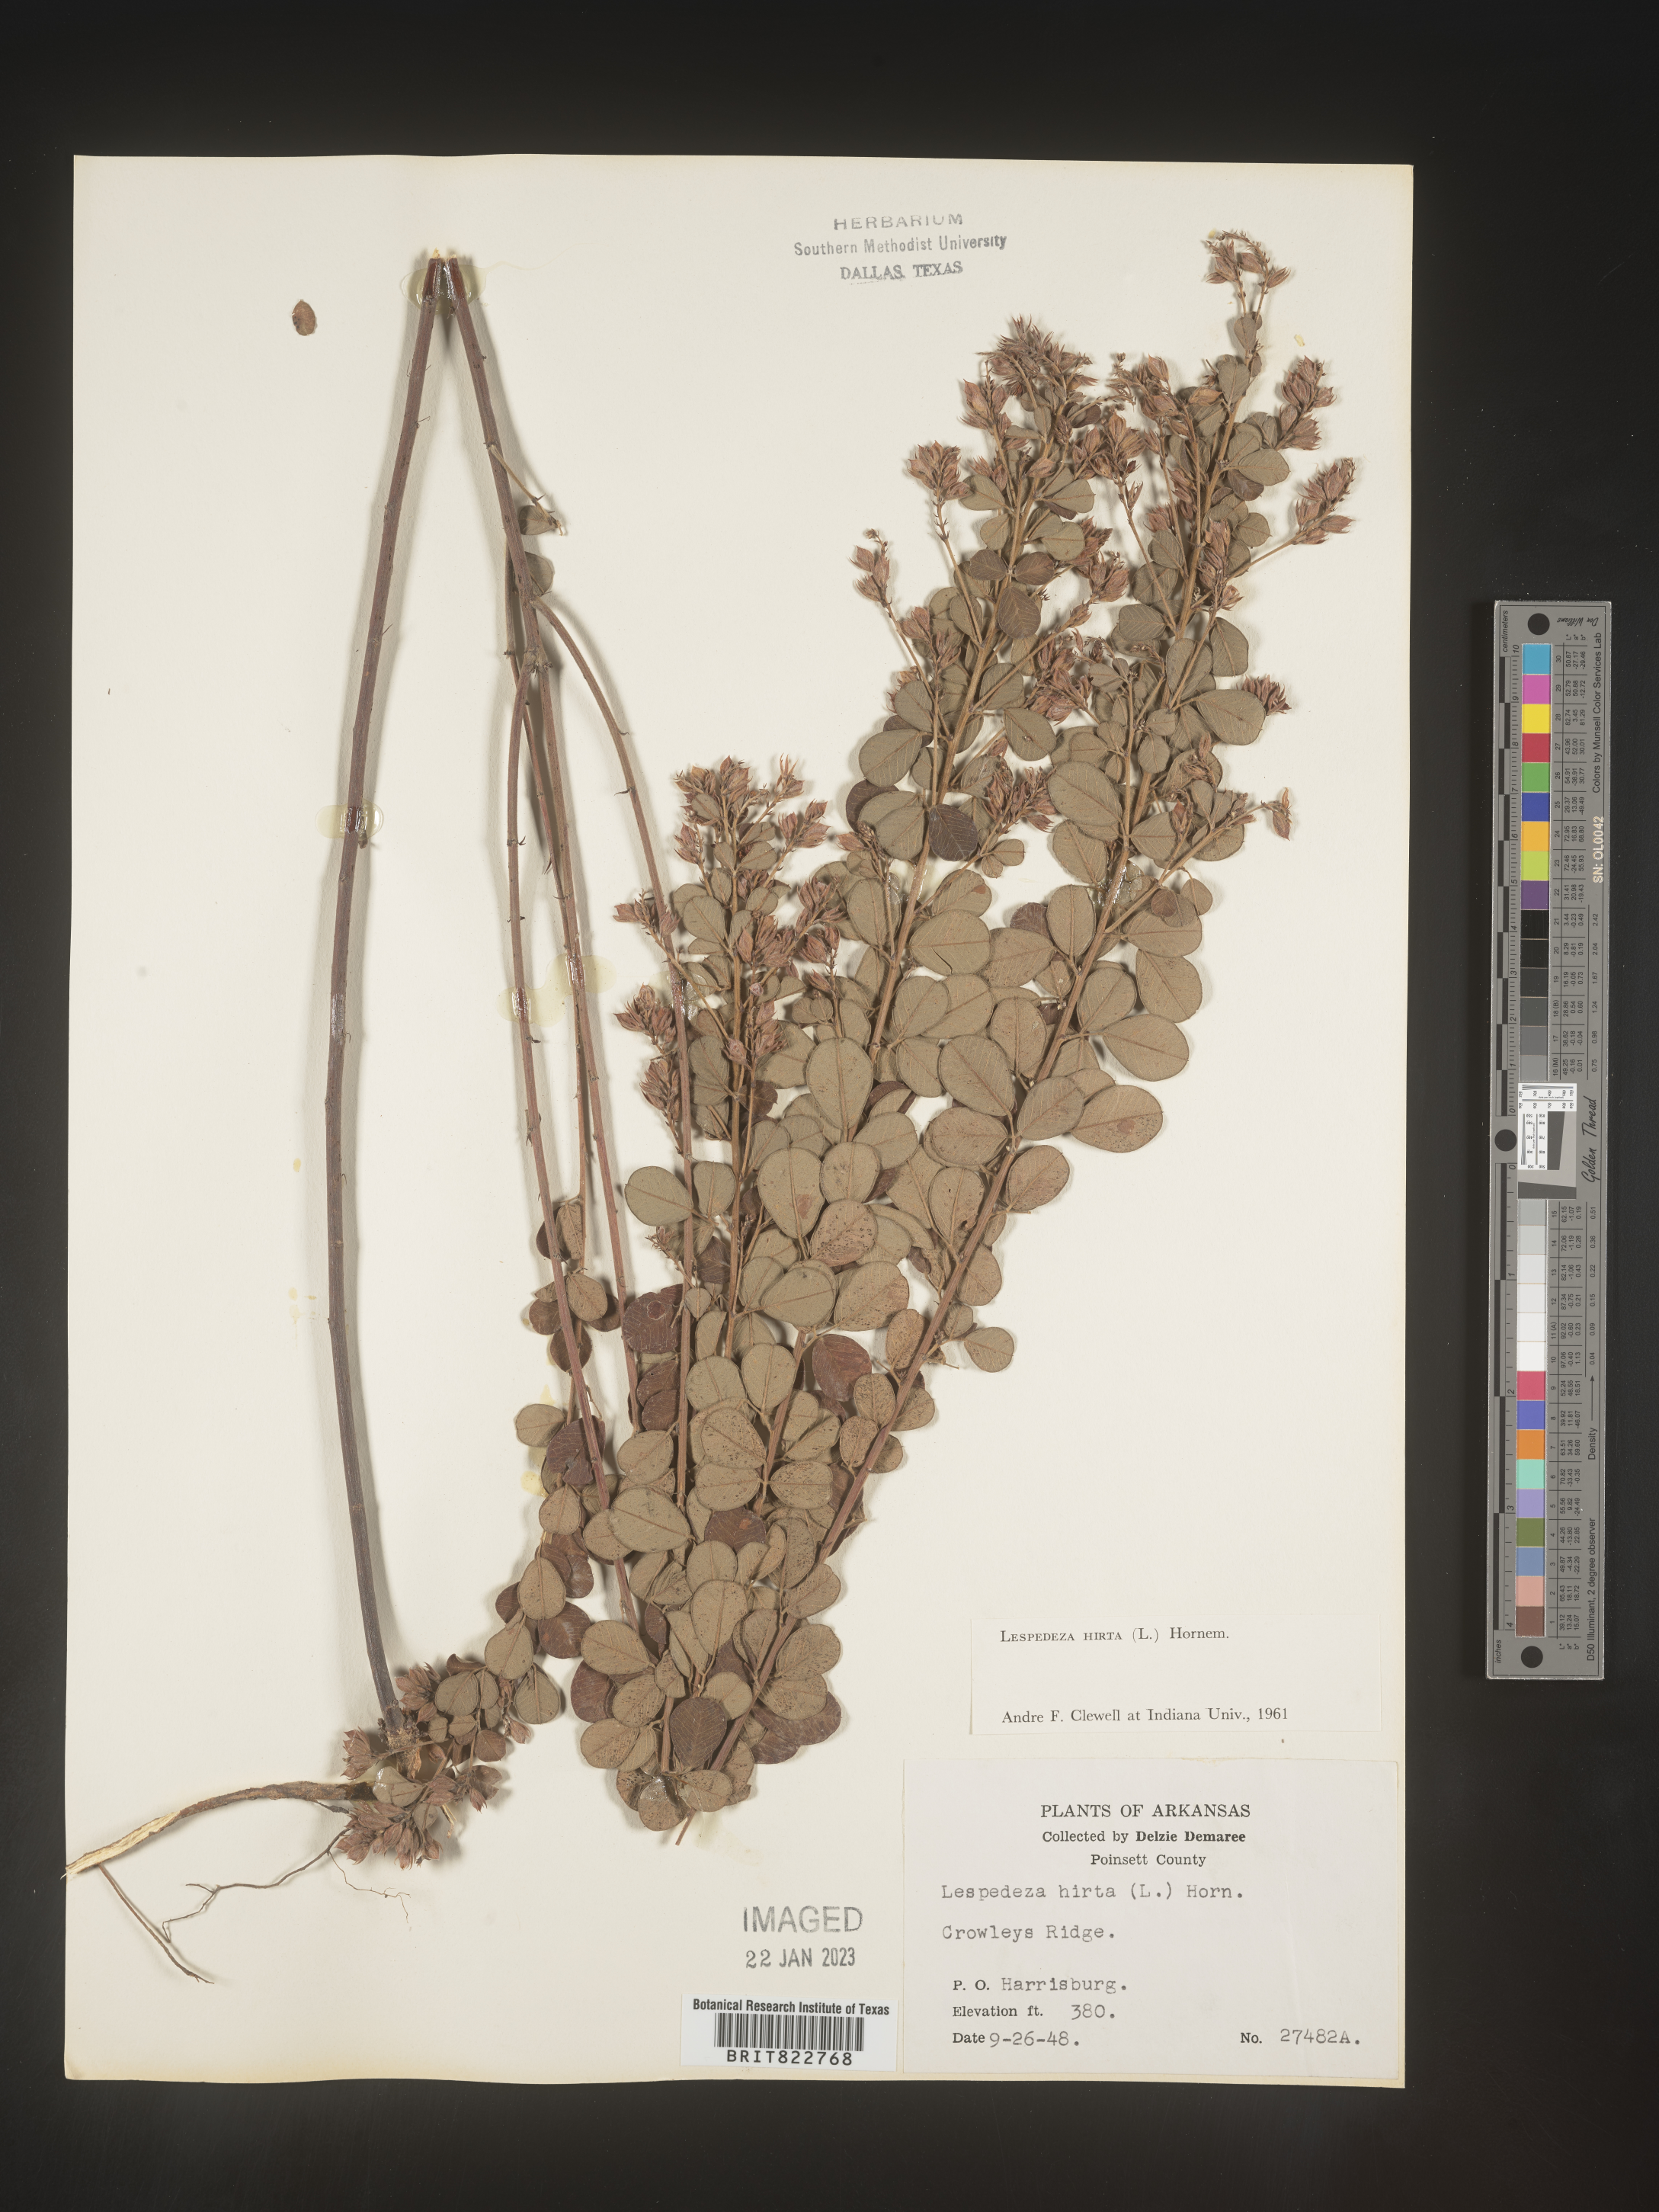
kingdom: Plantae
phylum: Tracheophyta
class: Magnoliopsida
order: Fabales
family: Fabaceae
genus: Lespedeza
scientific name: Lespedeza hirta
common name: Hairy lespedeza
